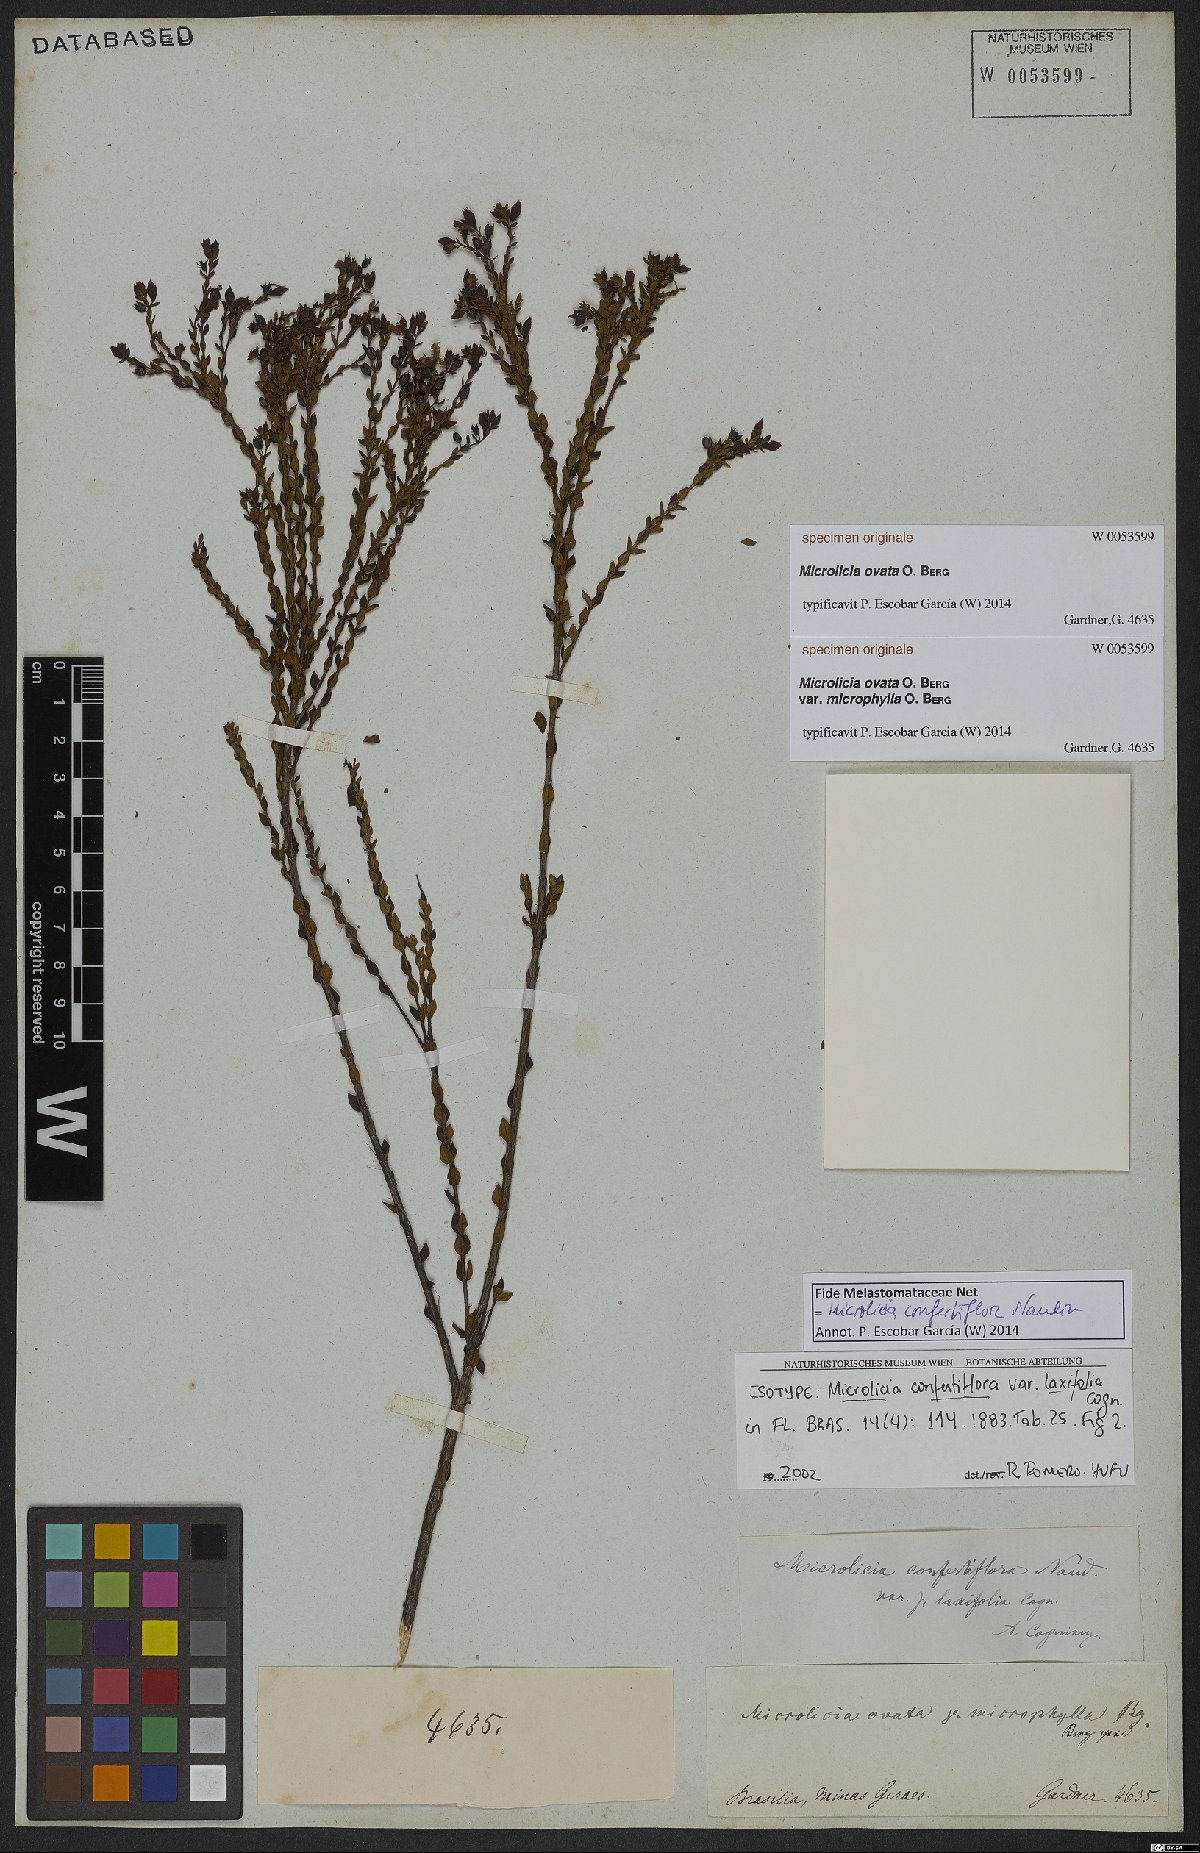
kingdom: Plantae
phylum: Tracheophyta
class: Magnoliopsida
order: Myrtales
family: Melastomataceae
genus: Microlicia
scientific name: Microlicia confertiflora
